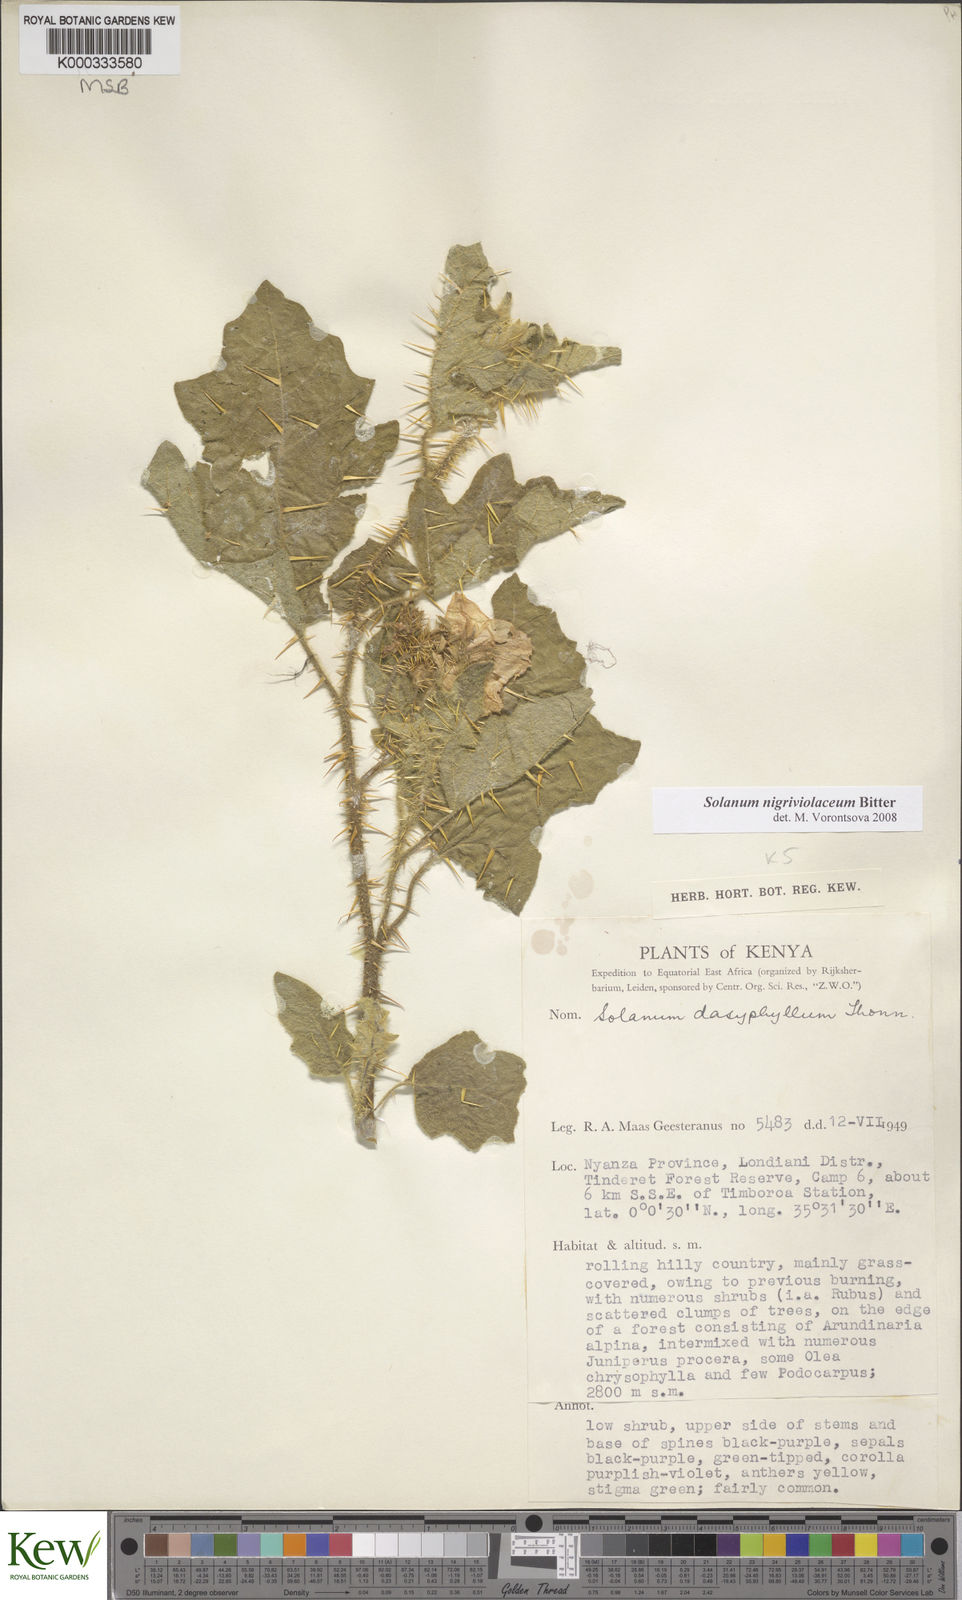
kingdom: Plantae
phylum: Tracheophyta
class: Magnoliopsida
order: Solanales
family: Solanaceae
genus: Solanum
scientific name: Solanum nigriviolaceum
